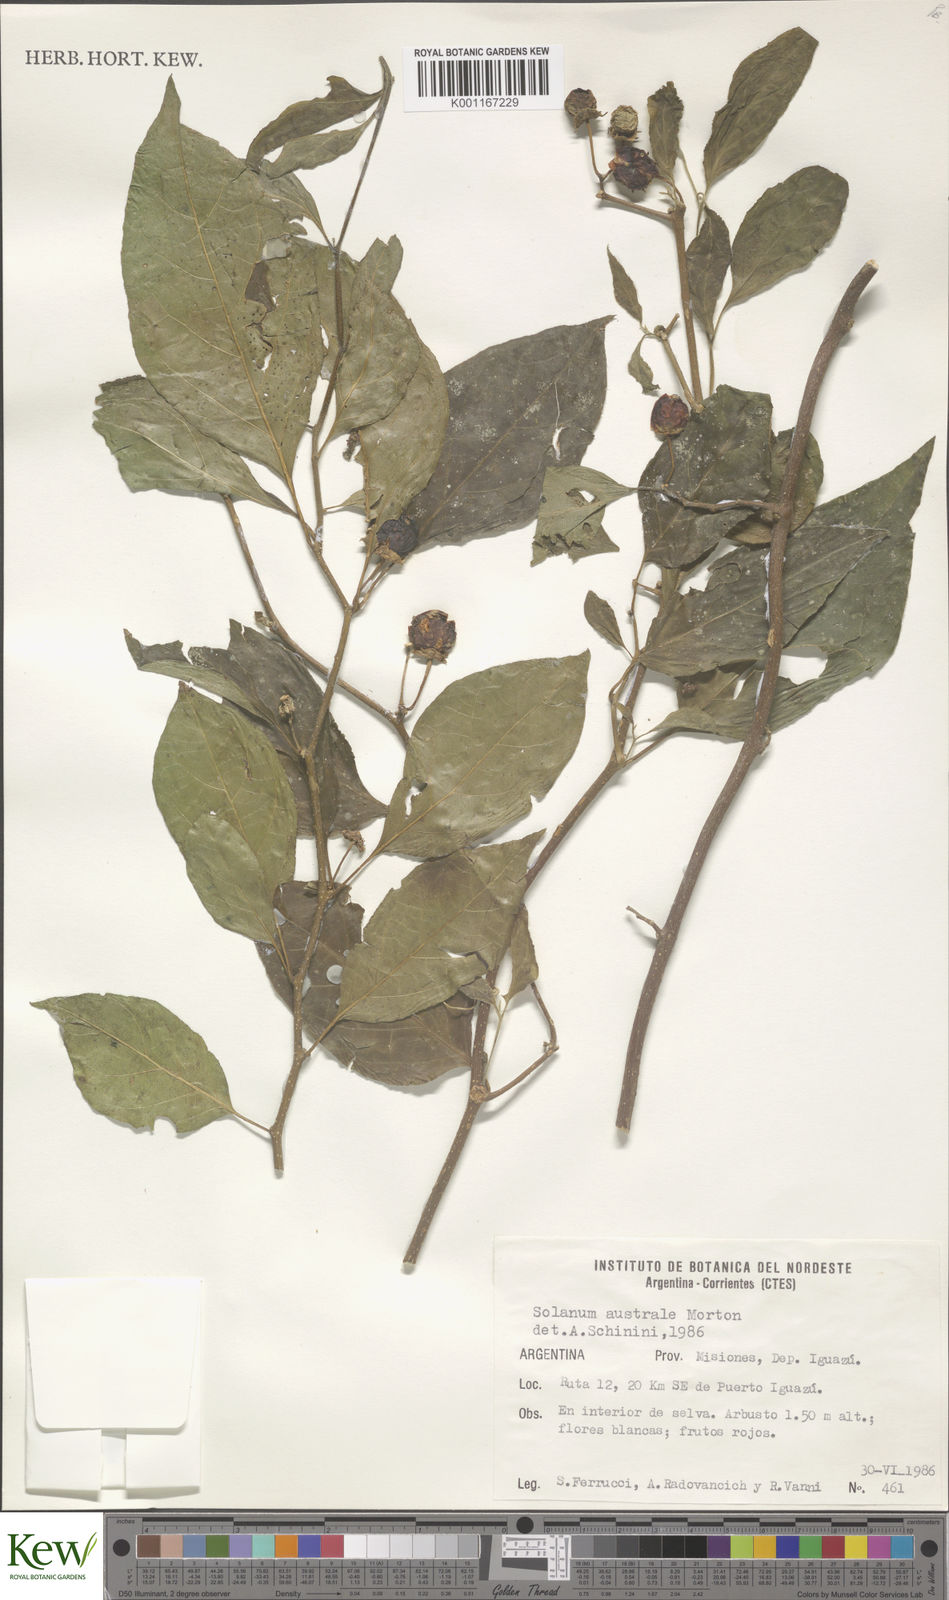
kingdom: Plantae
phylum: Tracheophyta
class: Magnoliopsida
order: Solanales
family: Solanaceae
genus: Lycianthes
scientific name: Lycianthes glandulosa
